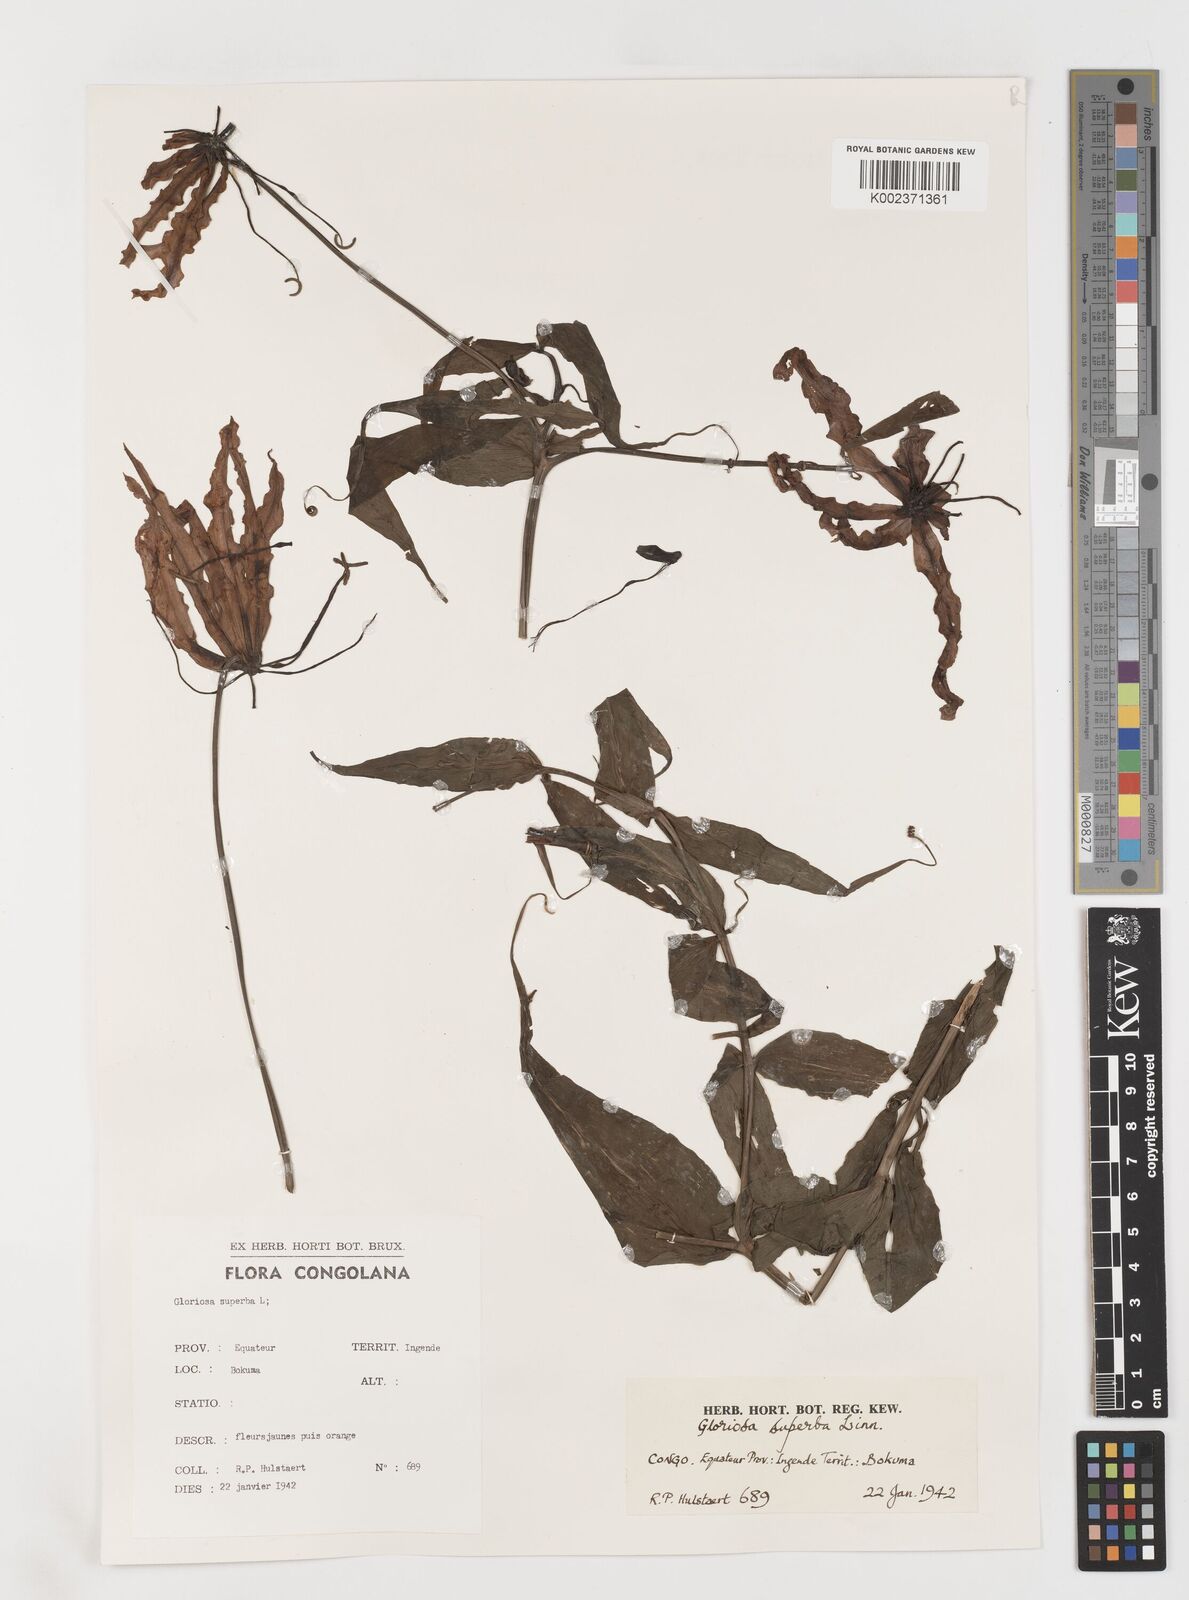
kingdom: Plantae
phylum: Tracheophyta
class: Liliopsida
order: Liliales
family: Colchicaceae
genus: Gloriosa
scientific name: Gloriosa superba
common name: Flame lily
